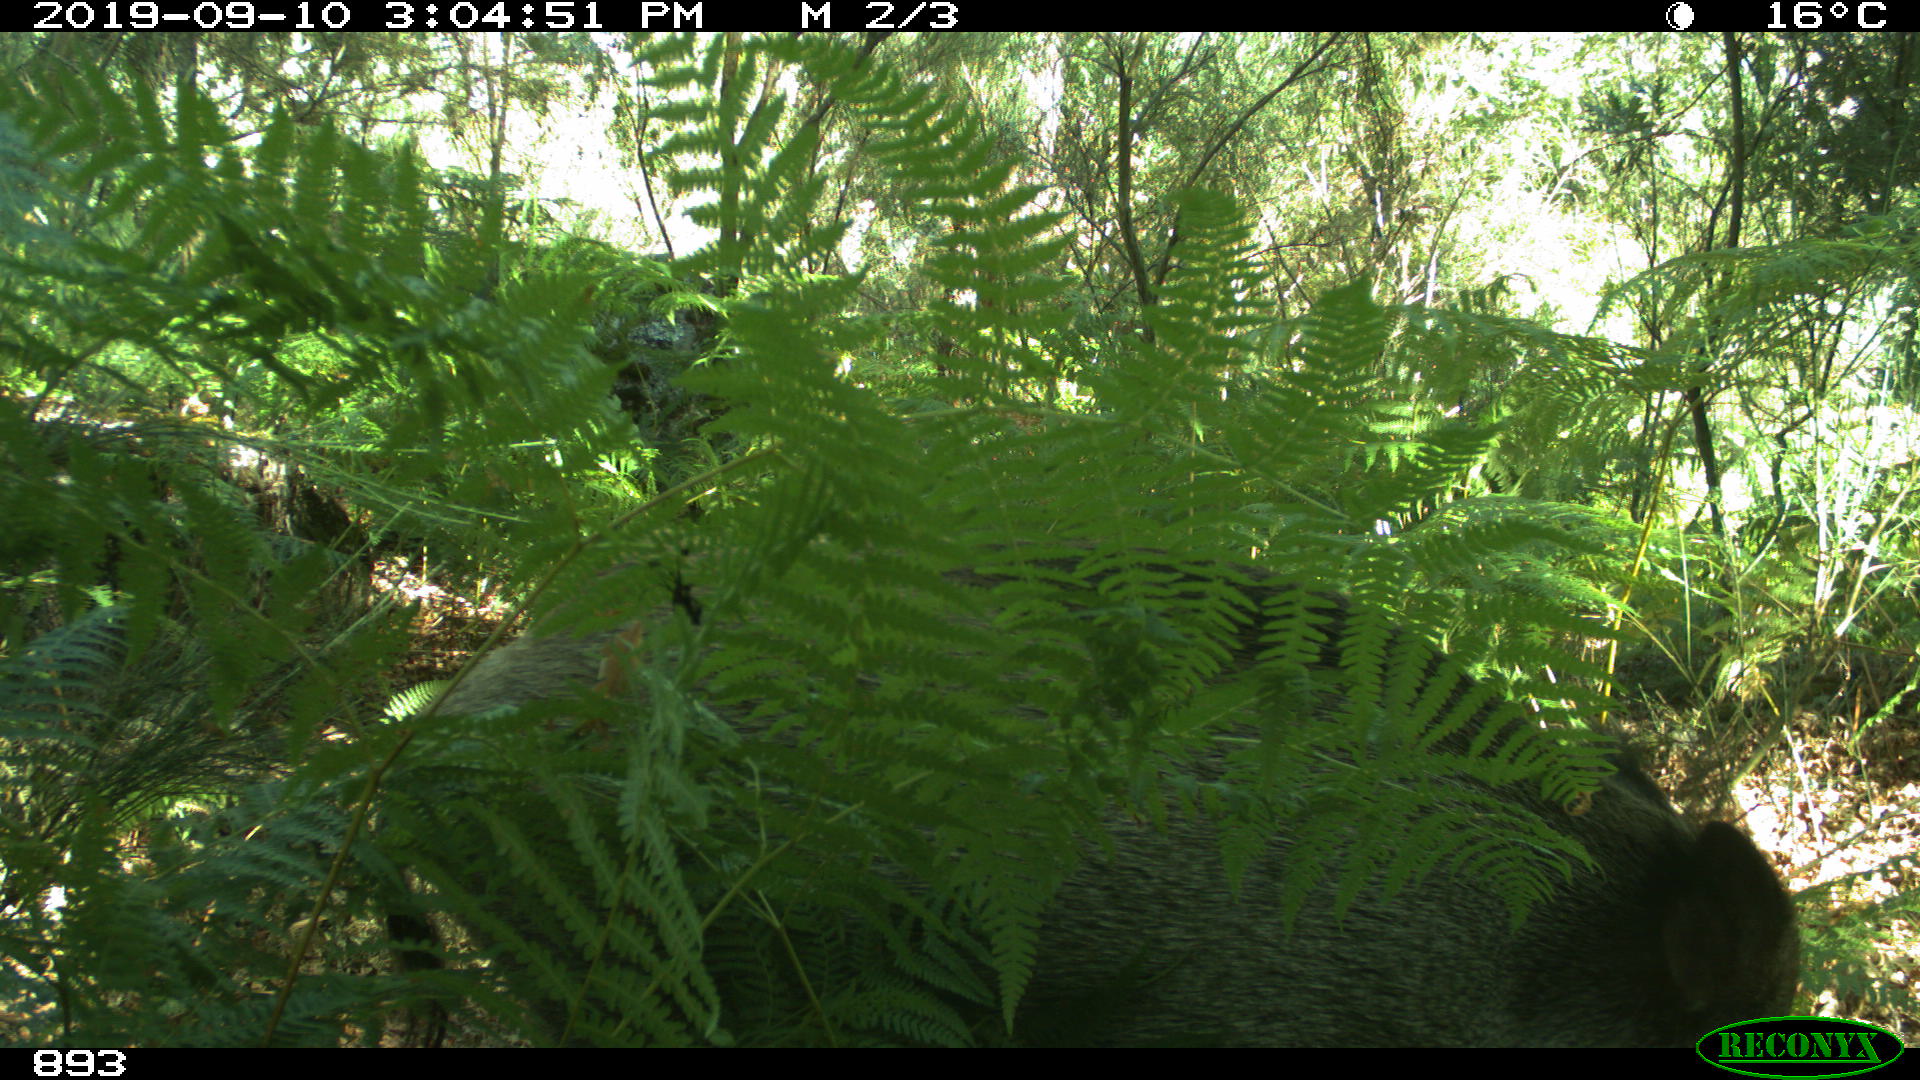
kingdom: Animalia
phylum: Chordata
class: Mammalia
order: Artiodactyla
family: Suidae
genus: Sus
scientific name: Sus scrofa
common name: Wild boar
